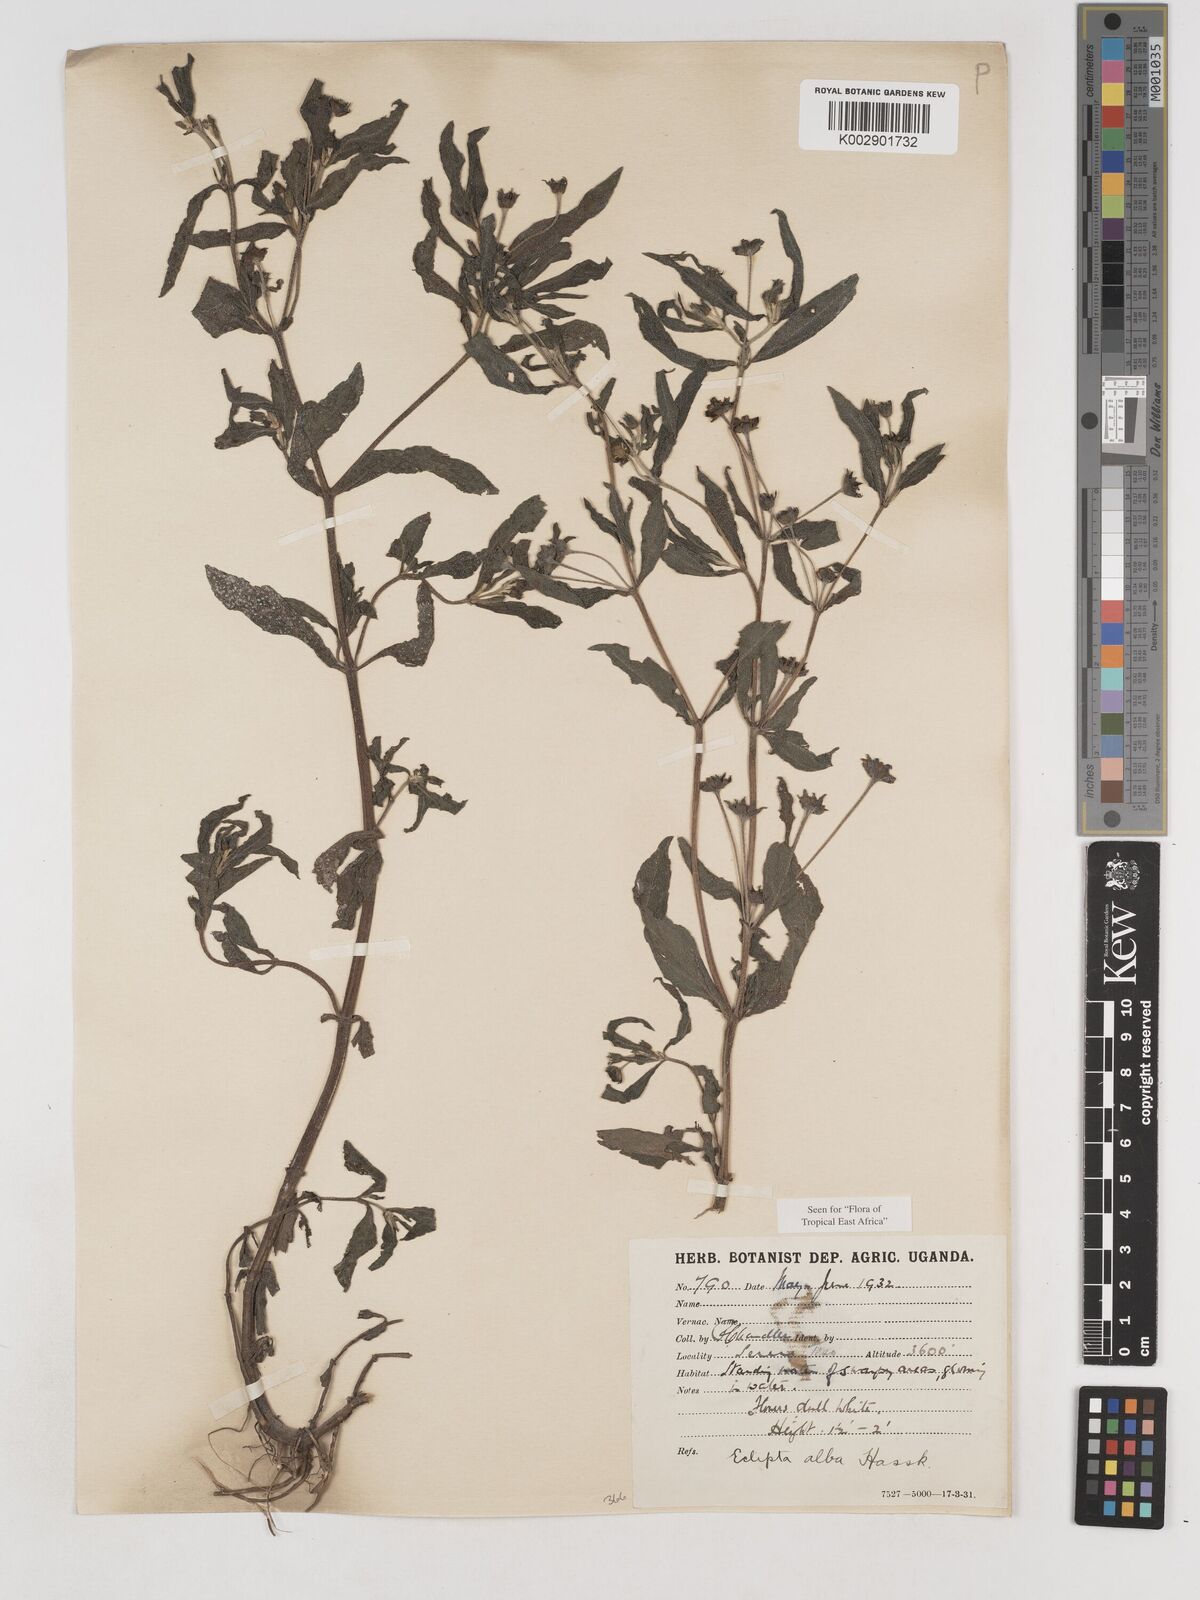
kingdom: Plantae
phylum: Tracheophyta
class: Magnoliopsida
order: Asterales
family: Asteraceae
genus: Eclipta
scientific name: Eclipta alba
